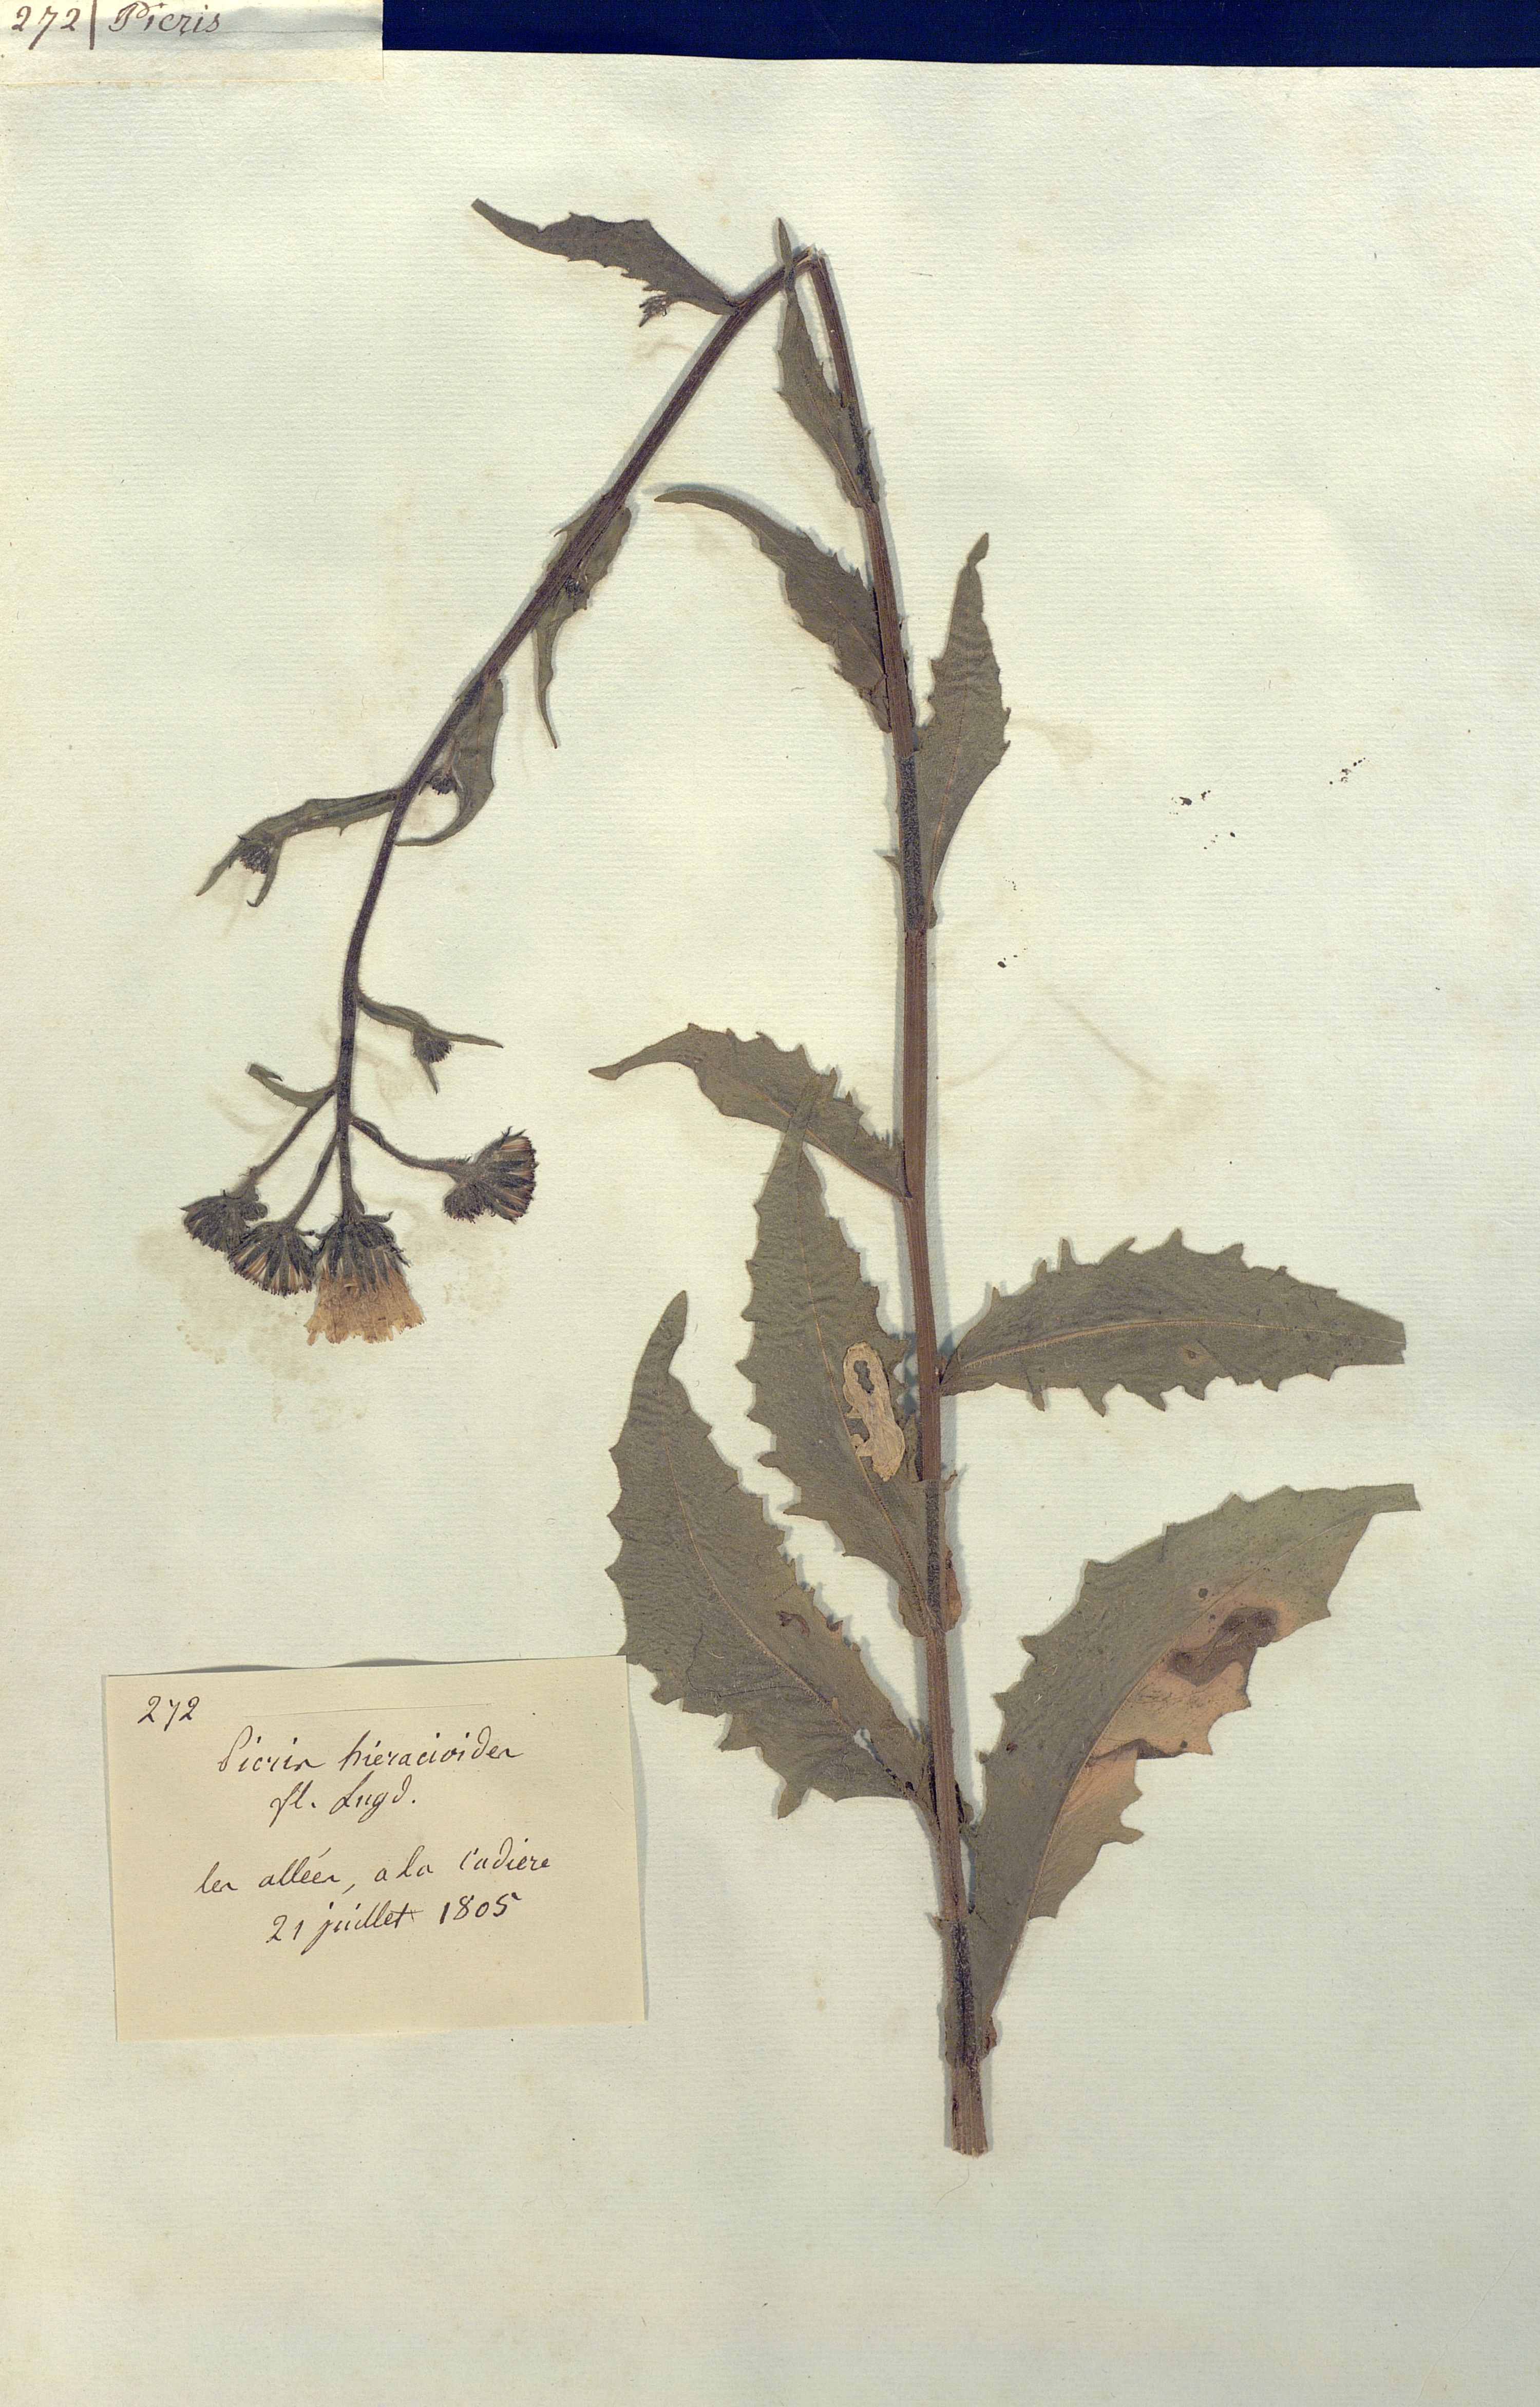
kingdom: Plantae
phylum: Tracheophyta
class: Magnoliopsida
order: Asterales
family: Asteraceae
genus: Picris
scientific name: Picris hieracioides
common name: Hawkweed oxtongue
